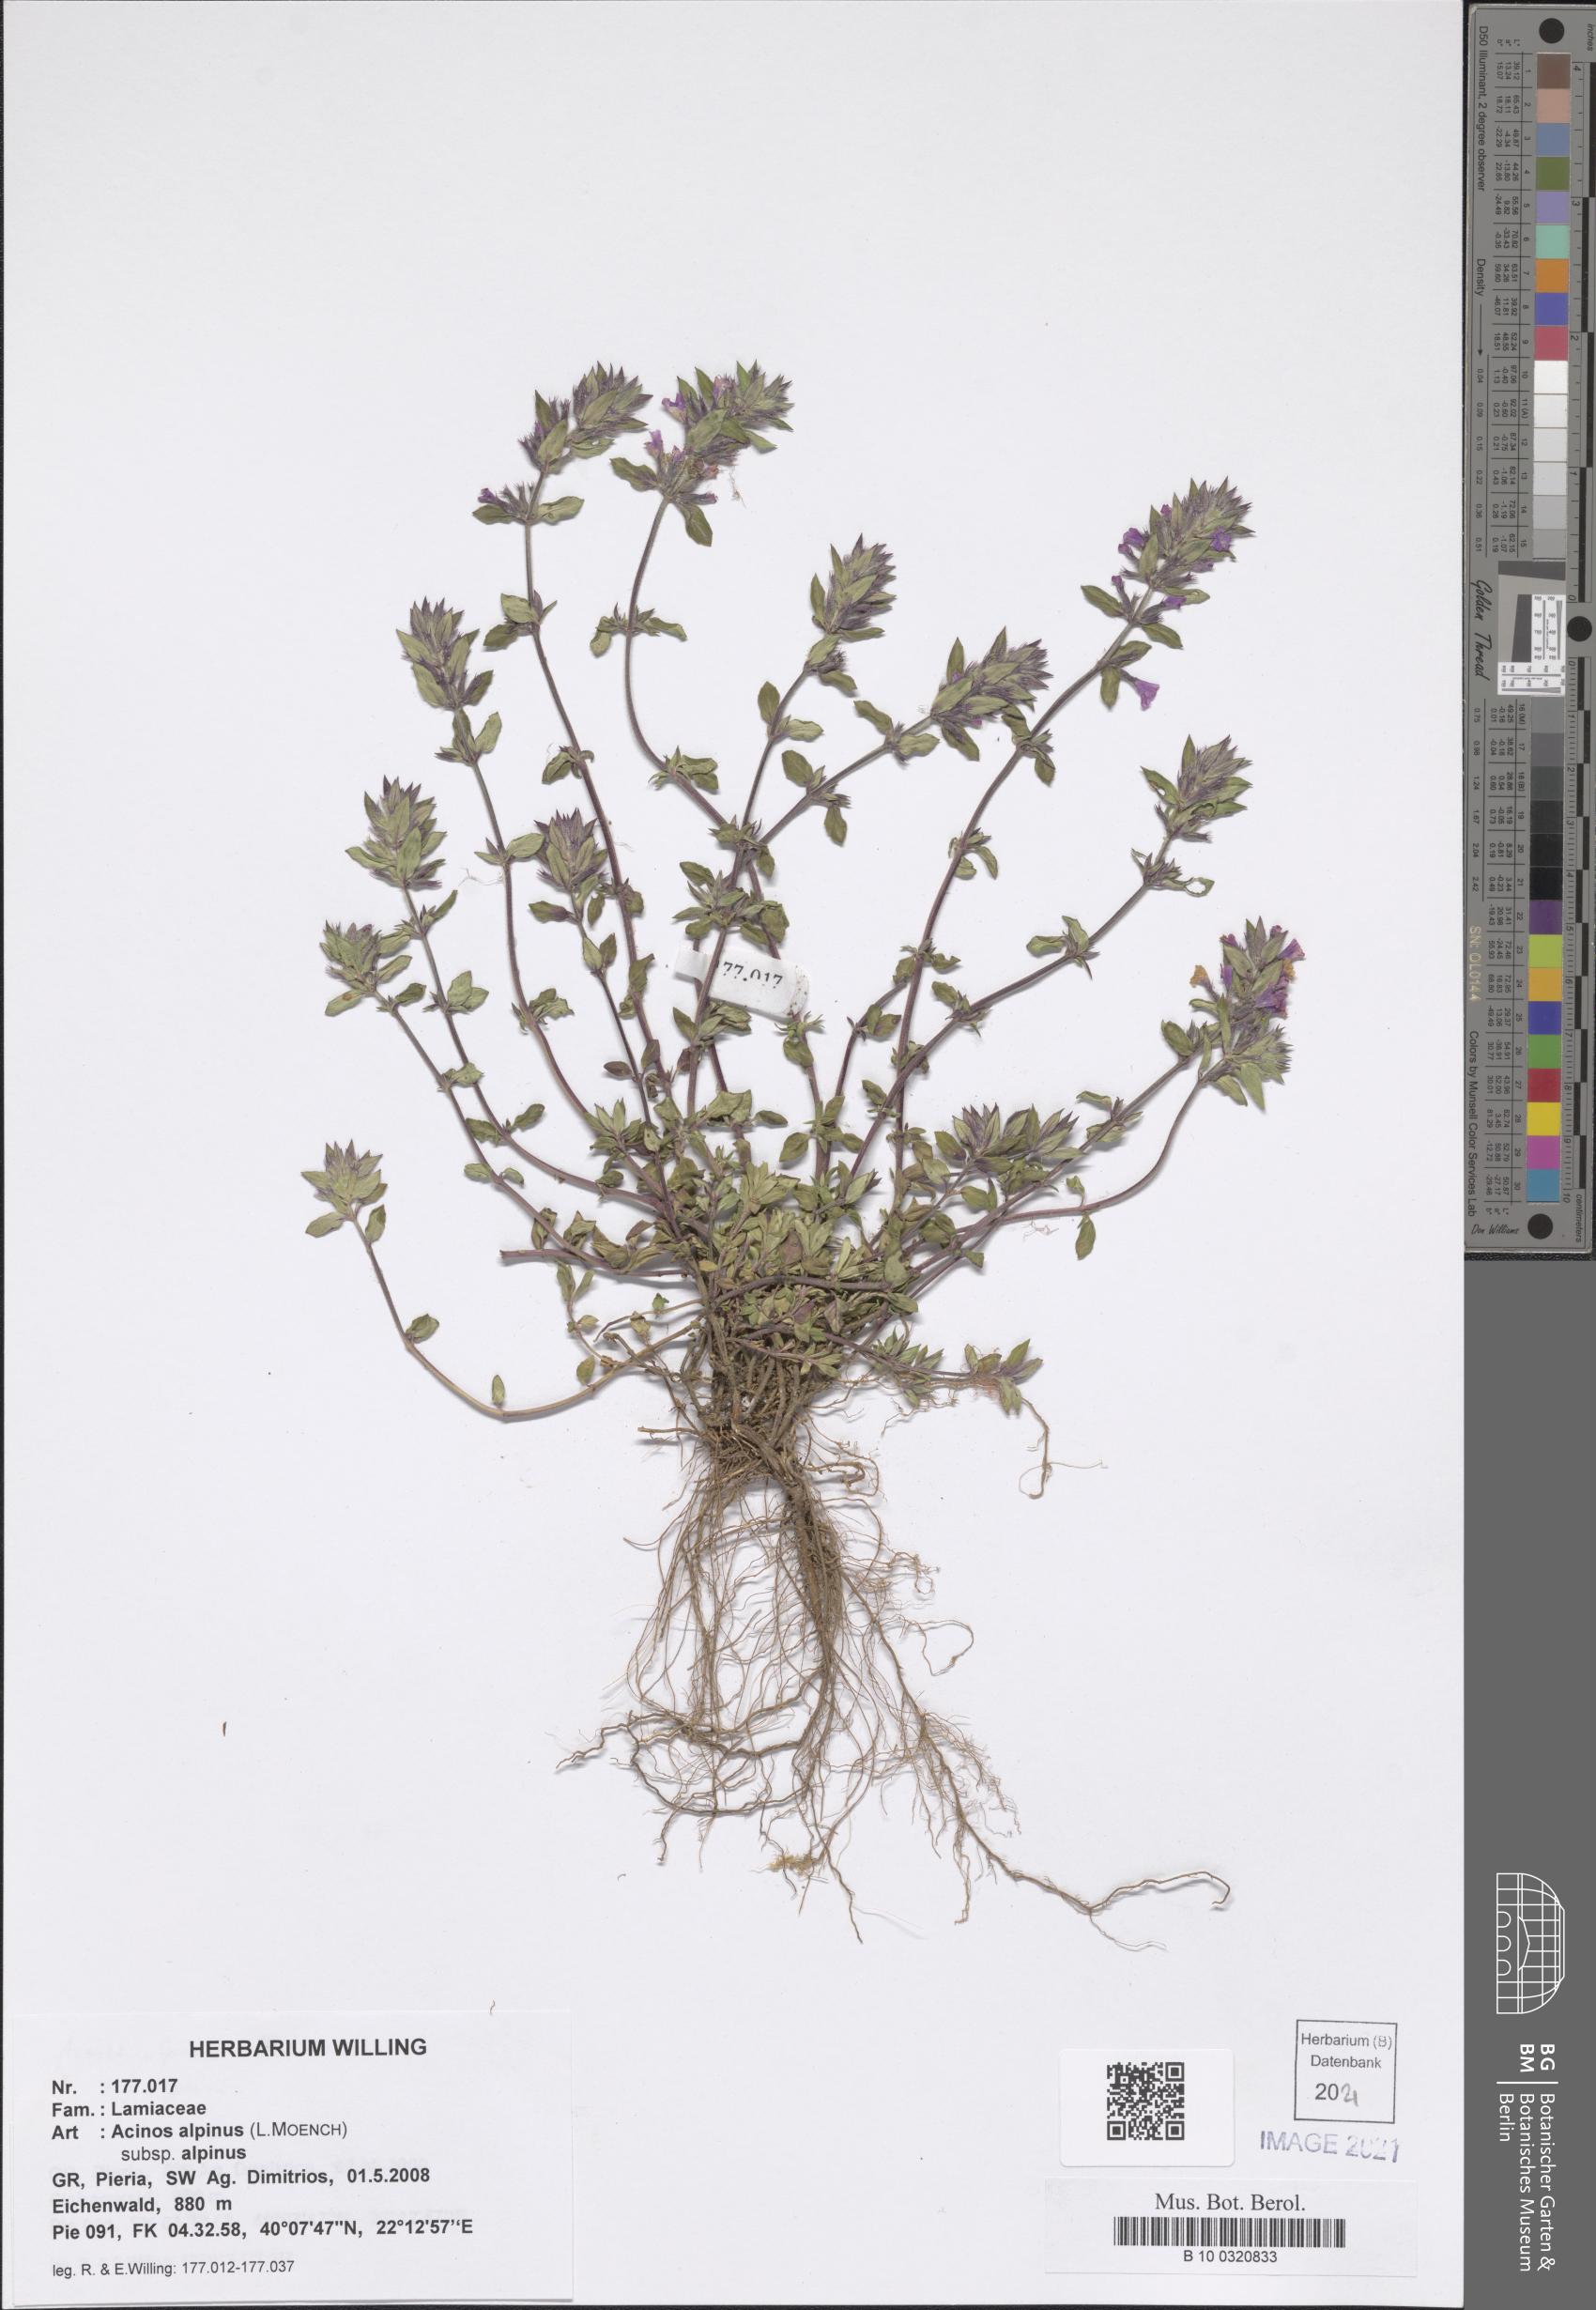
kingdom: Plantae
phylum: Tracheophyta
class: Magnoliopsida
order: Lamiales
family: Lamiaceae
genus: Clinopodium
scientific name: Clinopodium alpinum
